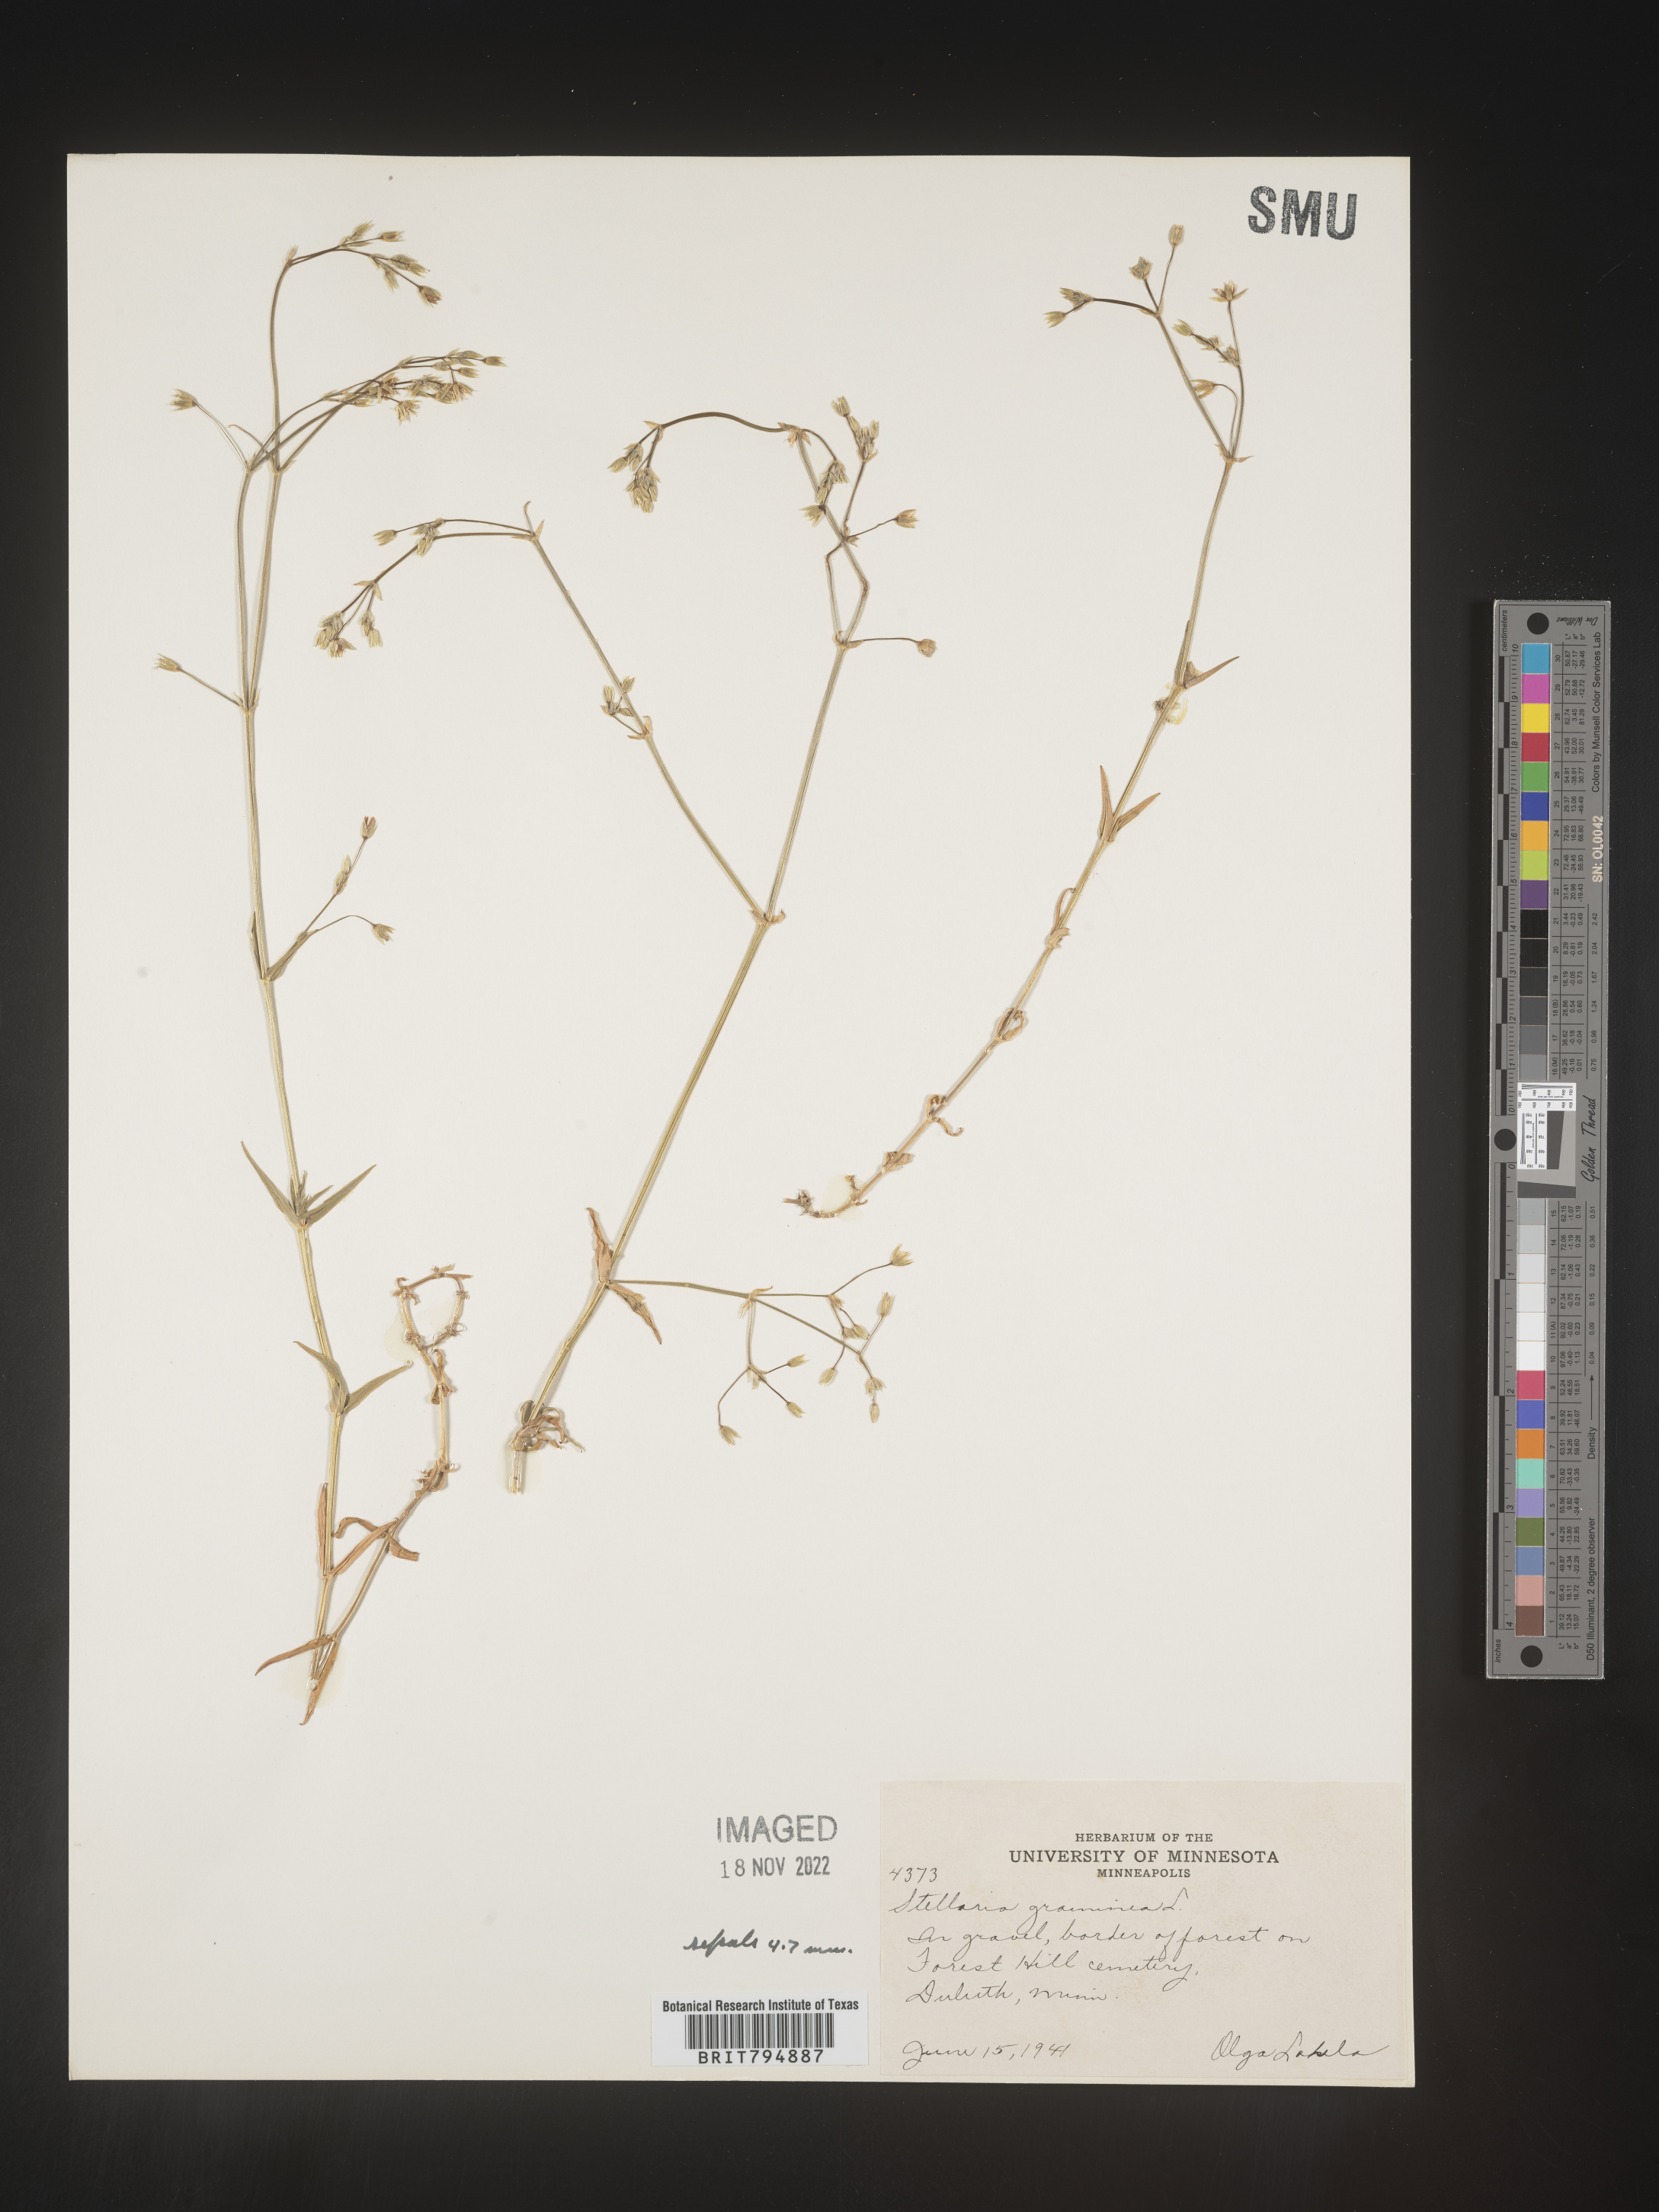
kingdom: Plantae
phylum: Tracheophyta
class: Magnoliopsida
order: Caryophyllales
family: Caryophyllaceae
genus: Stellaria
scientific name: Stellaria graminea
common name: Grass-like starwort
